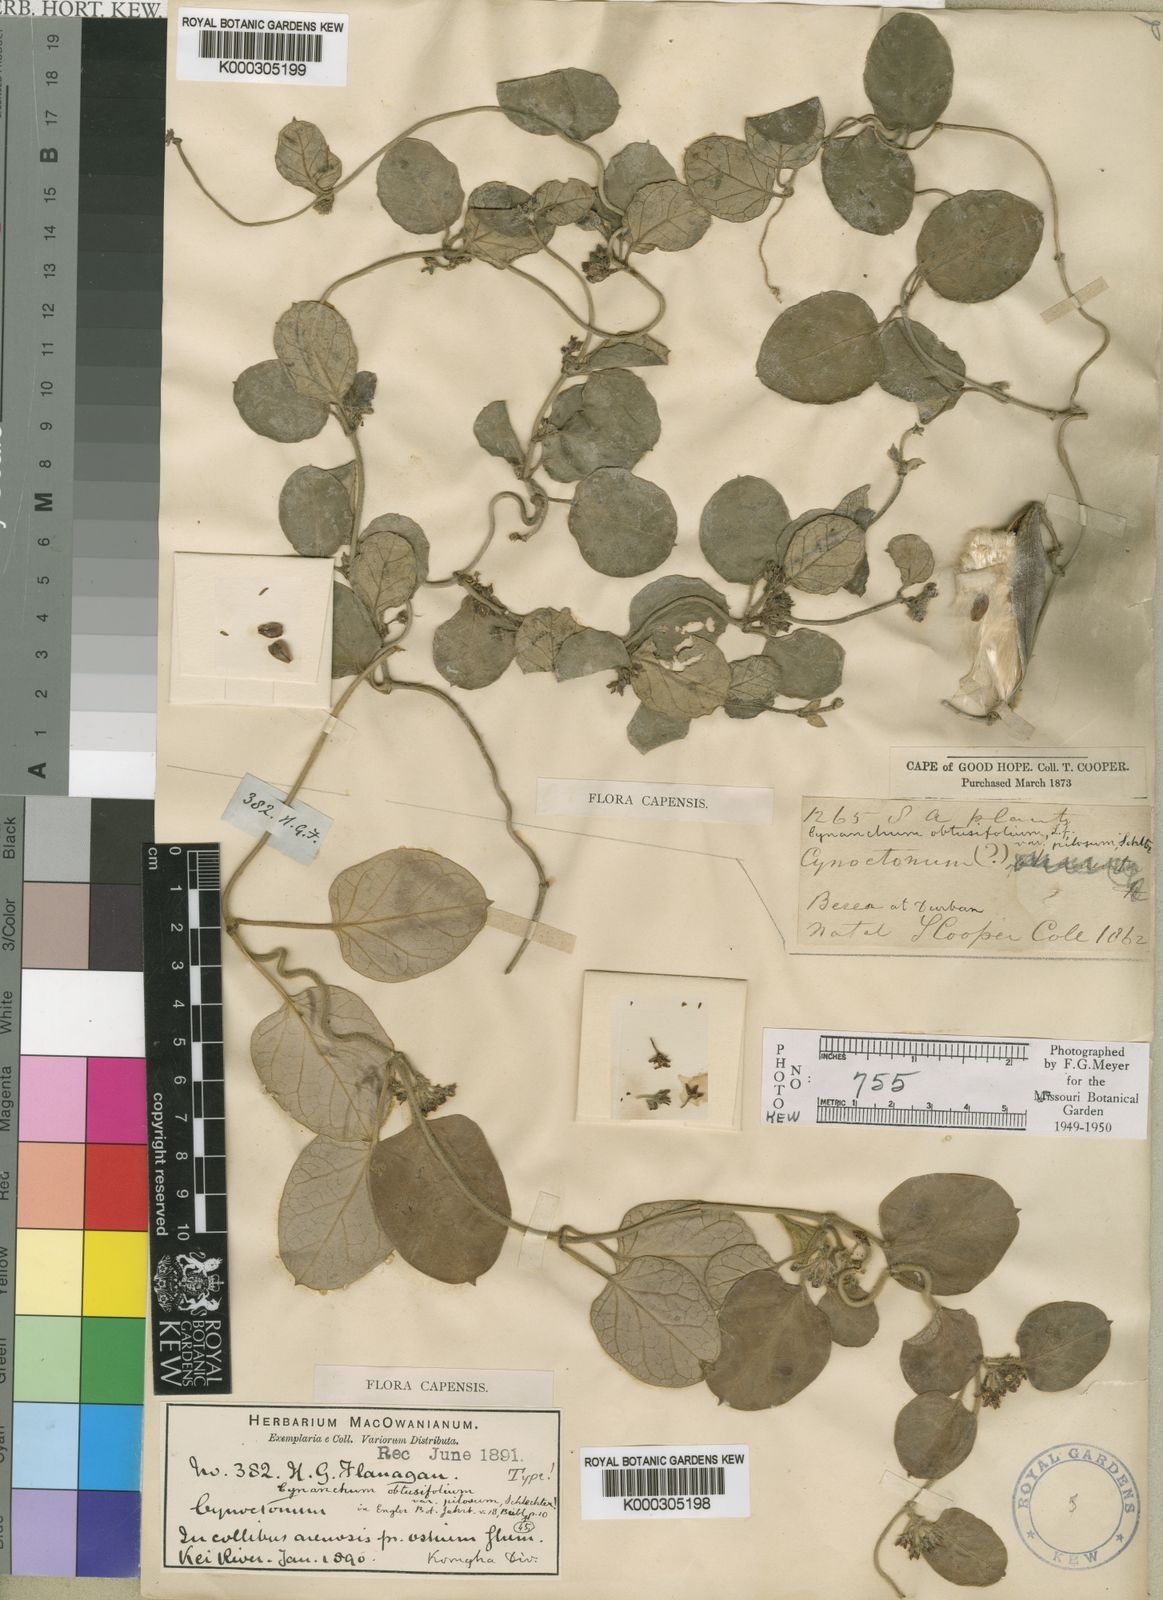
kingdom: Plantae
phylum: Tracheophyta
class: Magnoliopsida
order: Gentianales
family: Apocynaceae
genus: Cynanchum
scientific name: Cynanchum obtusifolium
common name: Monkey-rope
